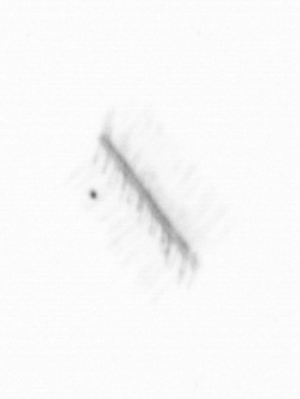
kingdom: Chromista
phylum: Ochrophyta
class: Bacillariophyceae
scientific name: Bacillariophyceae
